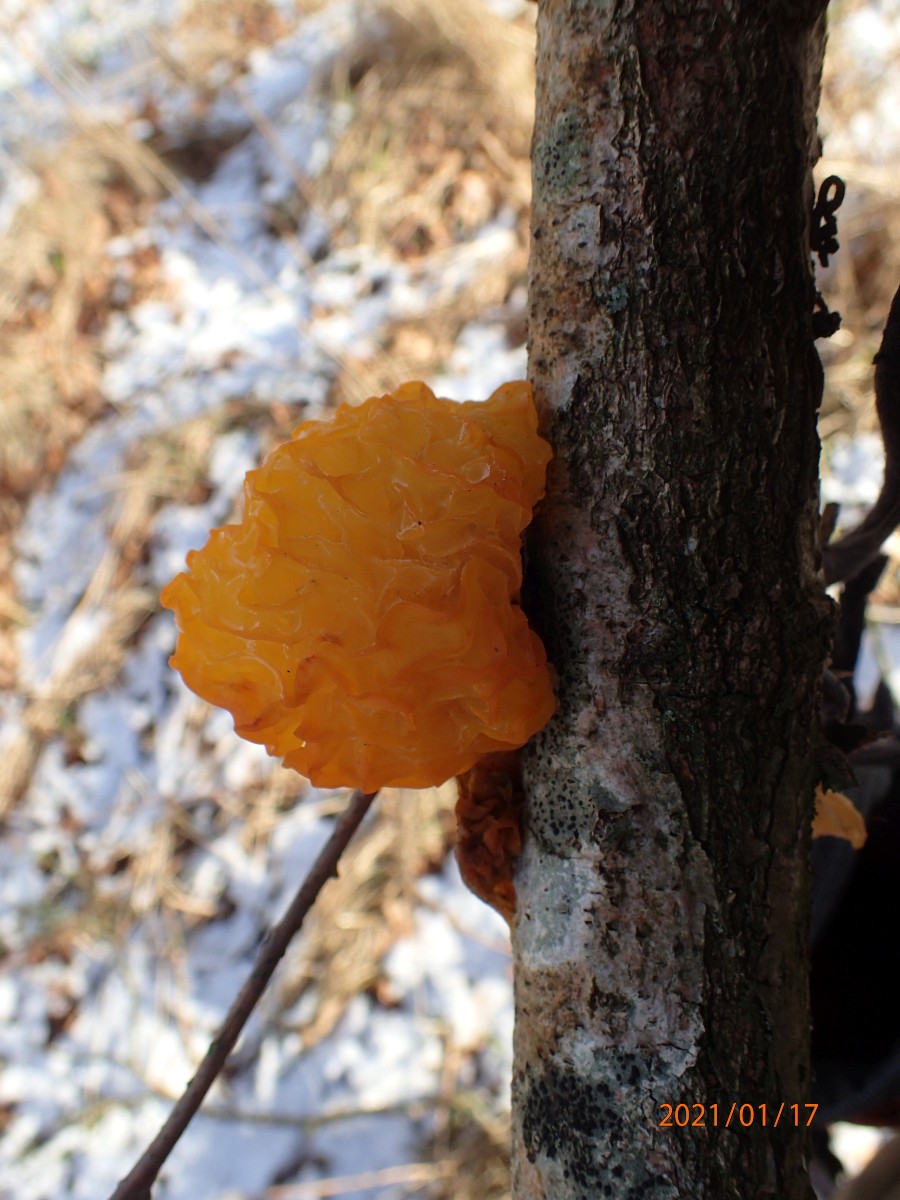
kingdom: Fungi
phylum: Basidiomycota
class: Tremellomycetes
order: Tremellales
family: Tremellaceae
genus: Tremella
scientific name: Tremella mesenterica
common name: gul bævresvamp
